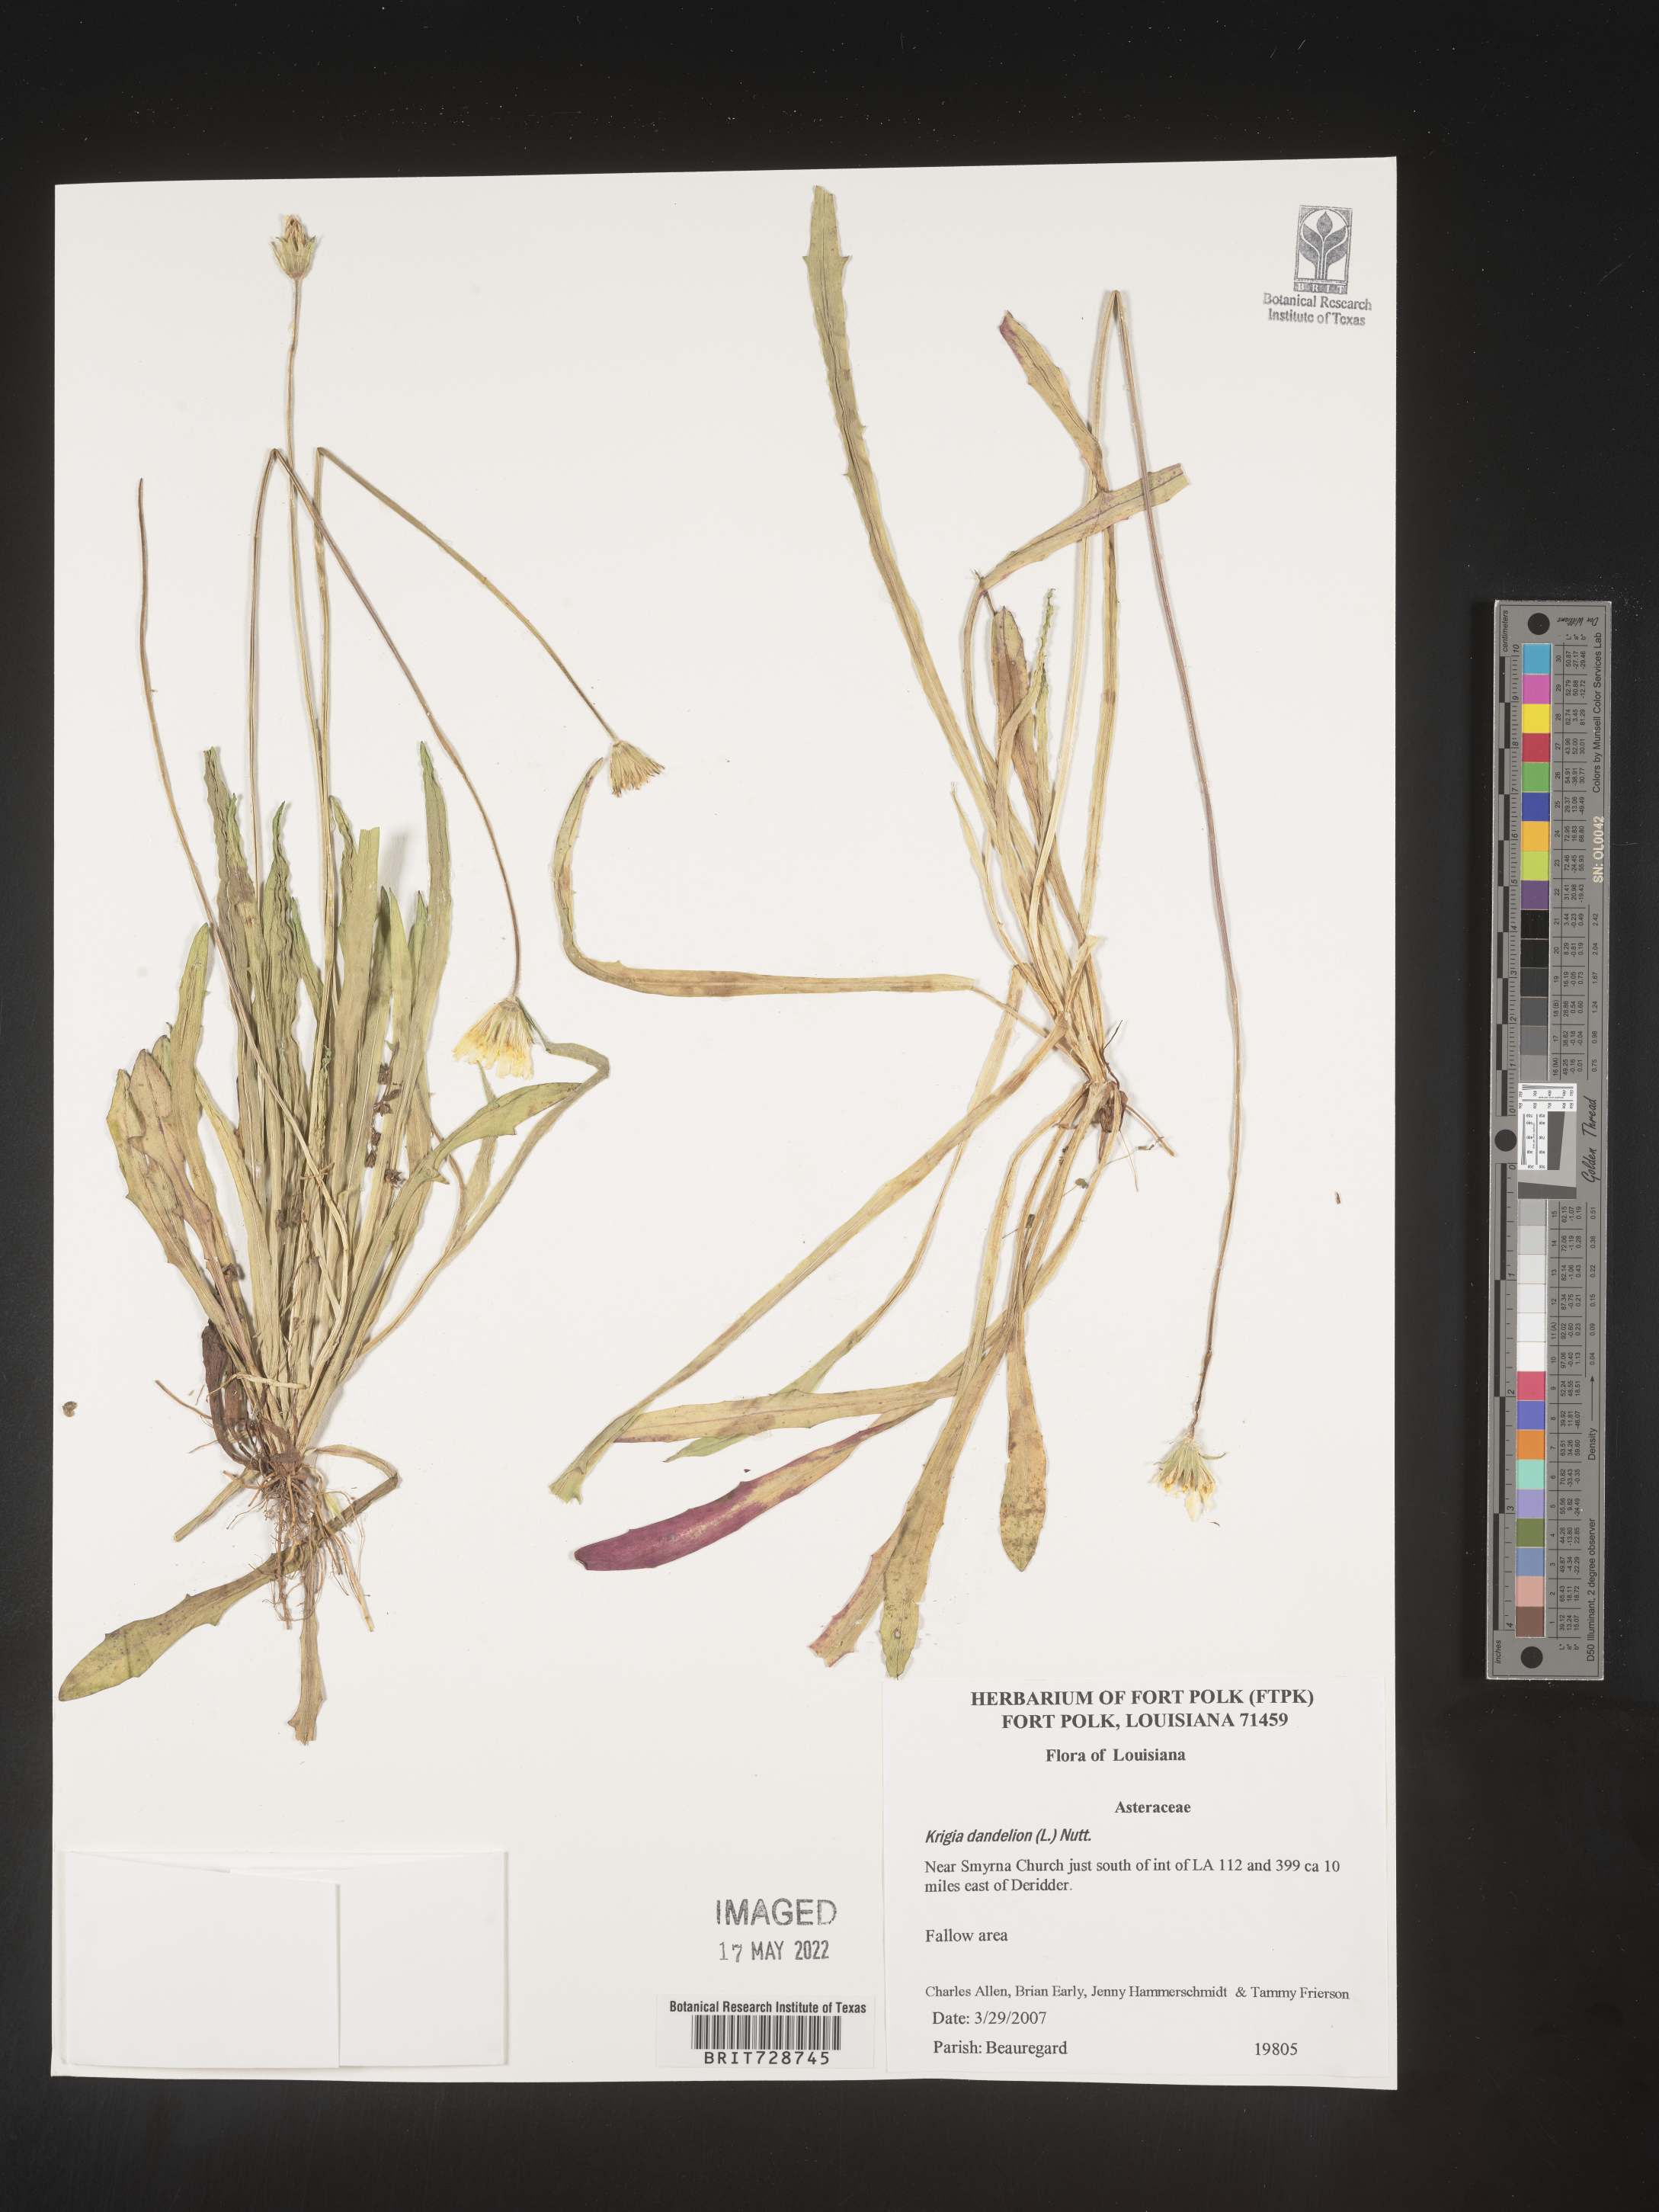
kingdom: Plantae
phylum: Tracheophyta
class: Magnoliopsida
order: Asterales
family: Asteraceae
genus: Krigia
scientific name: Krigia dandelion
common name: Colonial dwarf-dandelion
